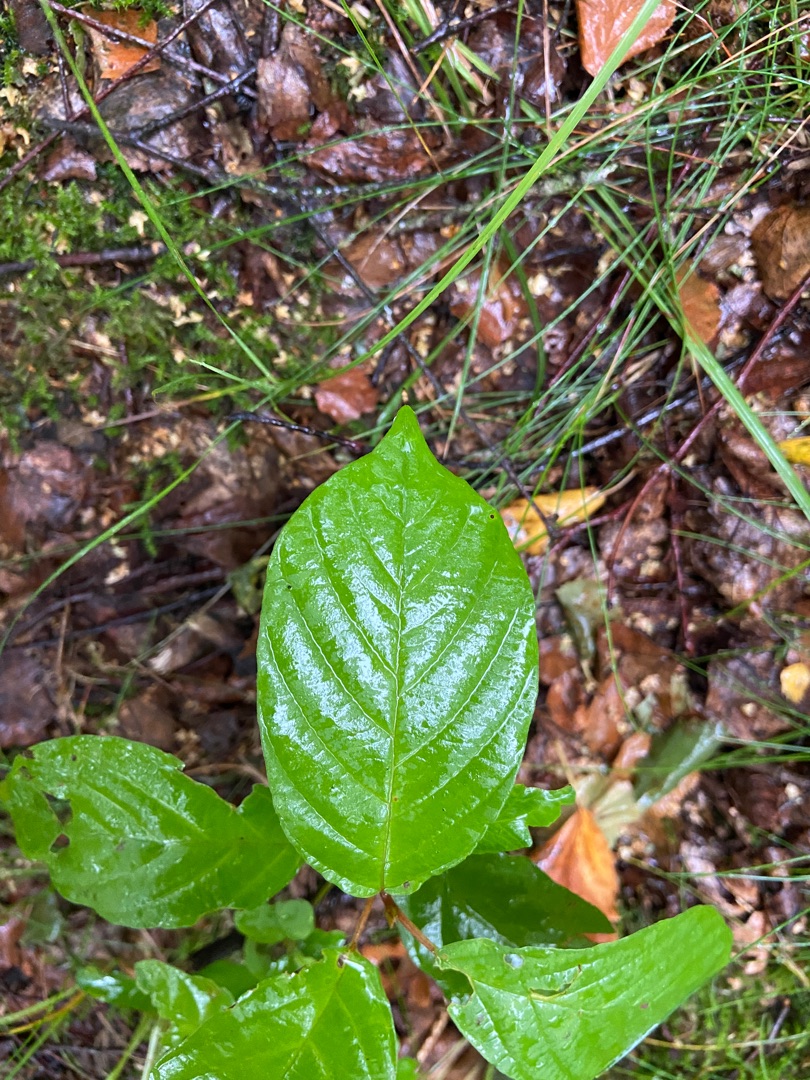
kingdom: Plantae
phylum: Tracheophyta
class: Magnoliopsida
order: Rosales
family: Rhamnaceae
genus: Frangula
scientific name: Frangula alnus
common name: Tørst
